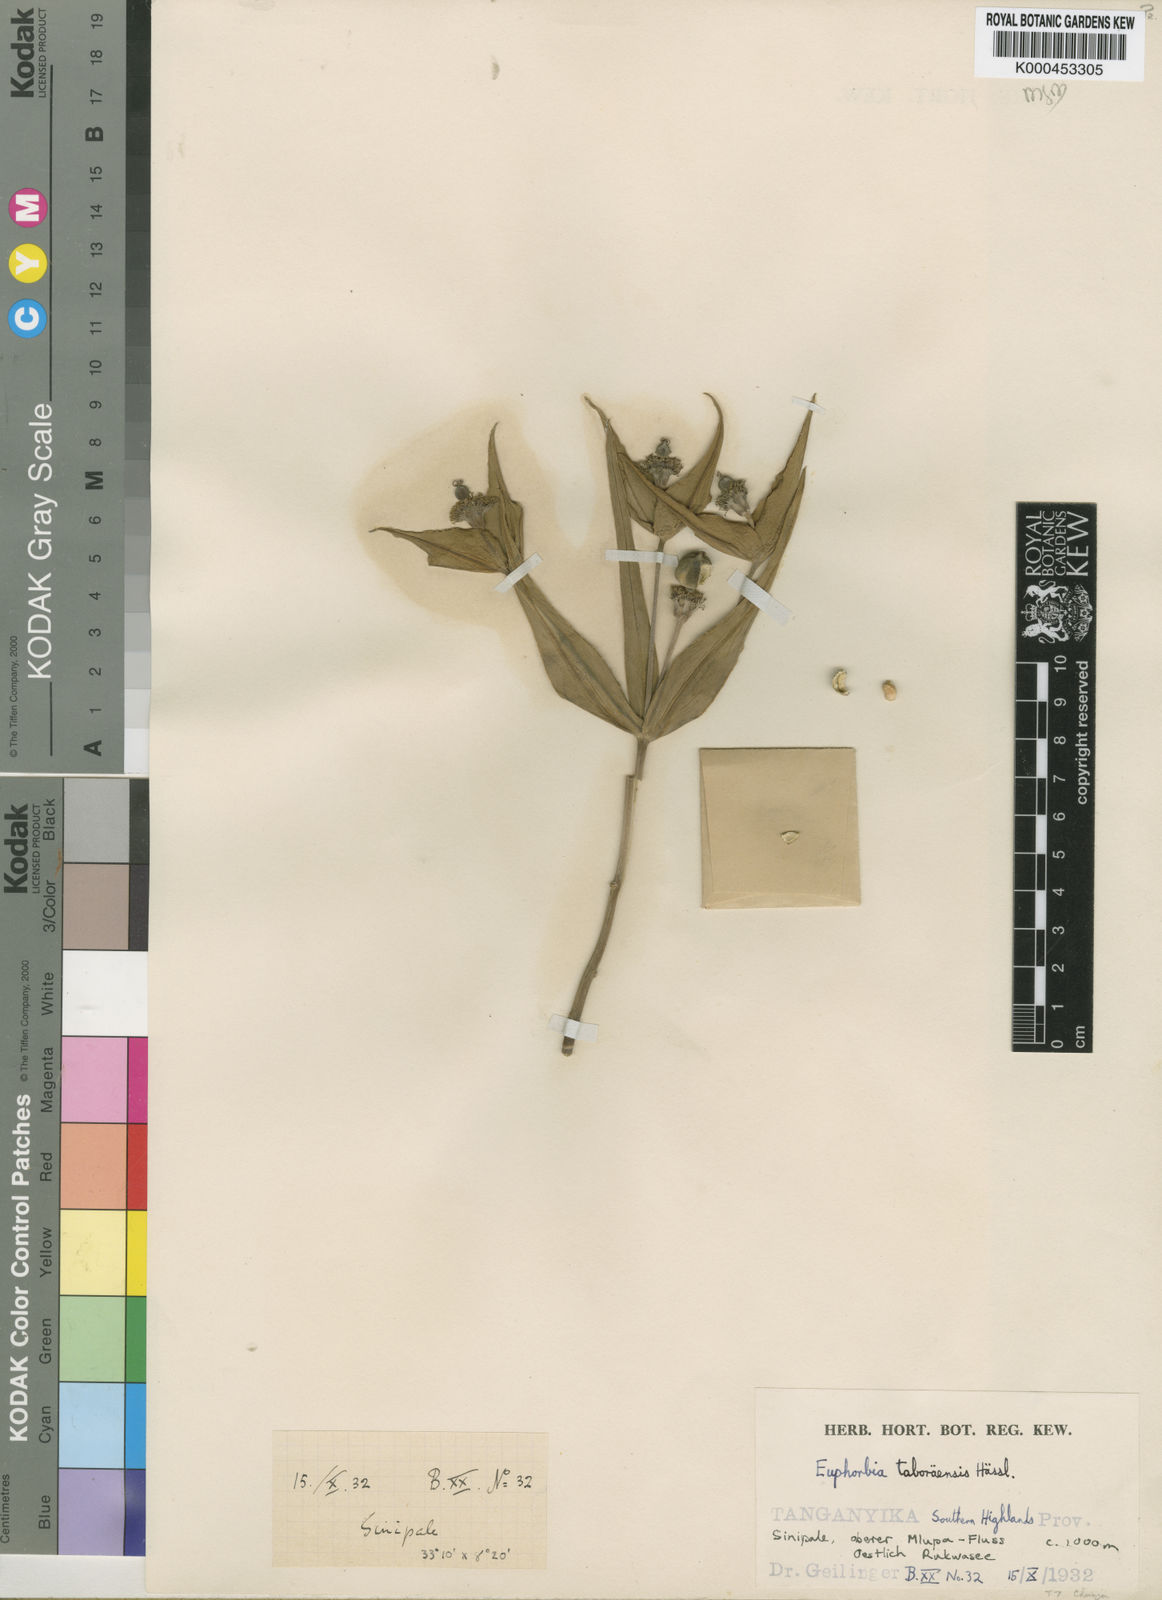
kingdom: Plantae
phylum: Tracheophyta
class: Magnoliopsida
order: Malpighiales
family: Euphorbiaceae
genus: Euphorbia
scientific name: Euphorbia taboraensis
